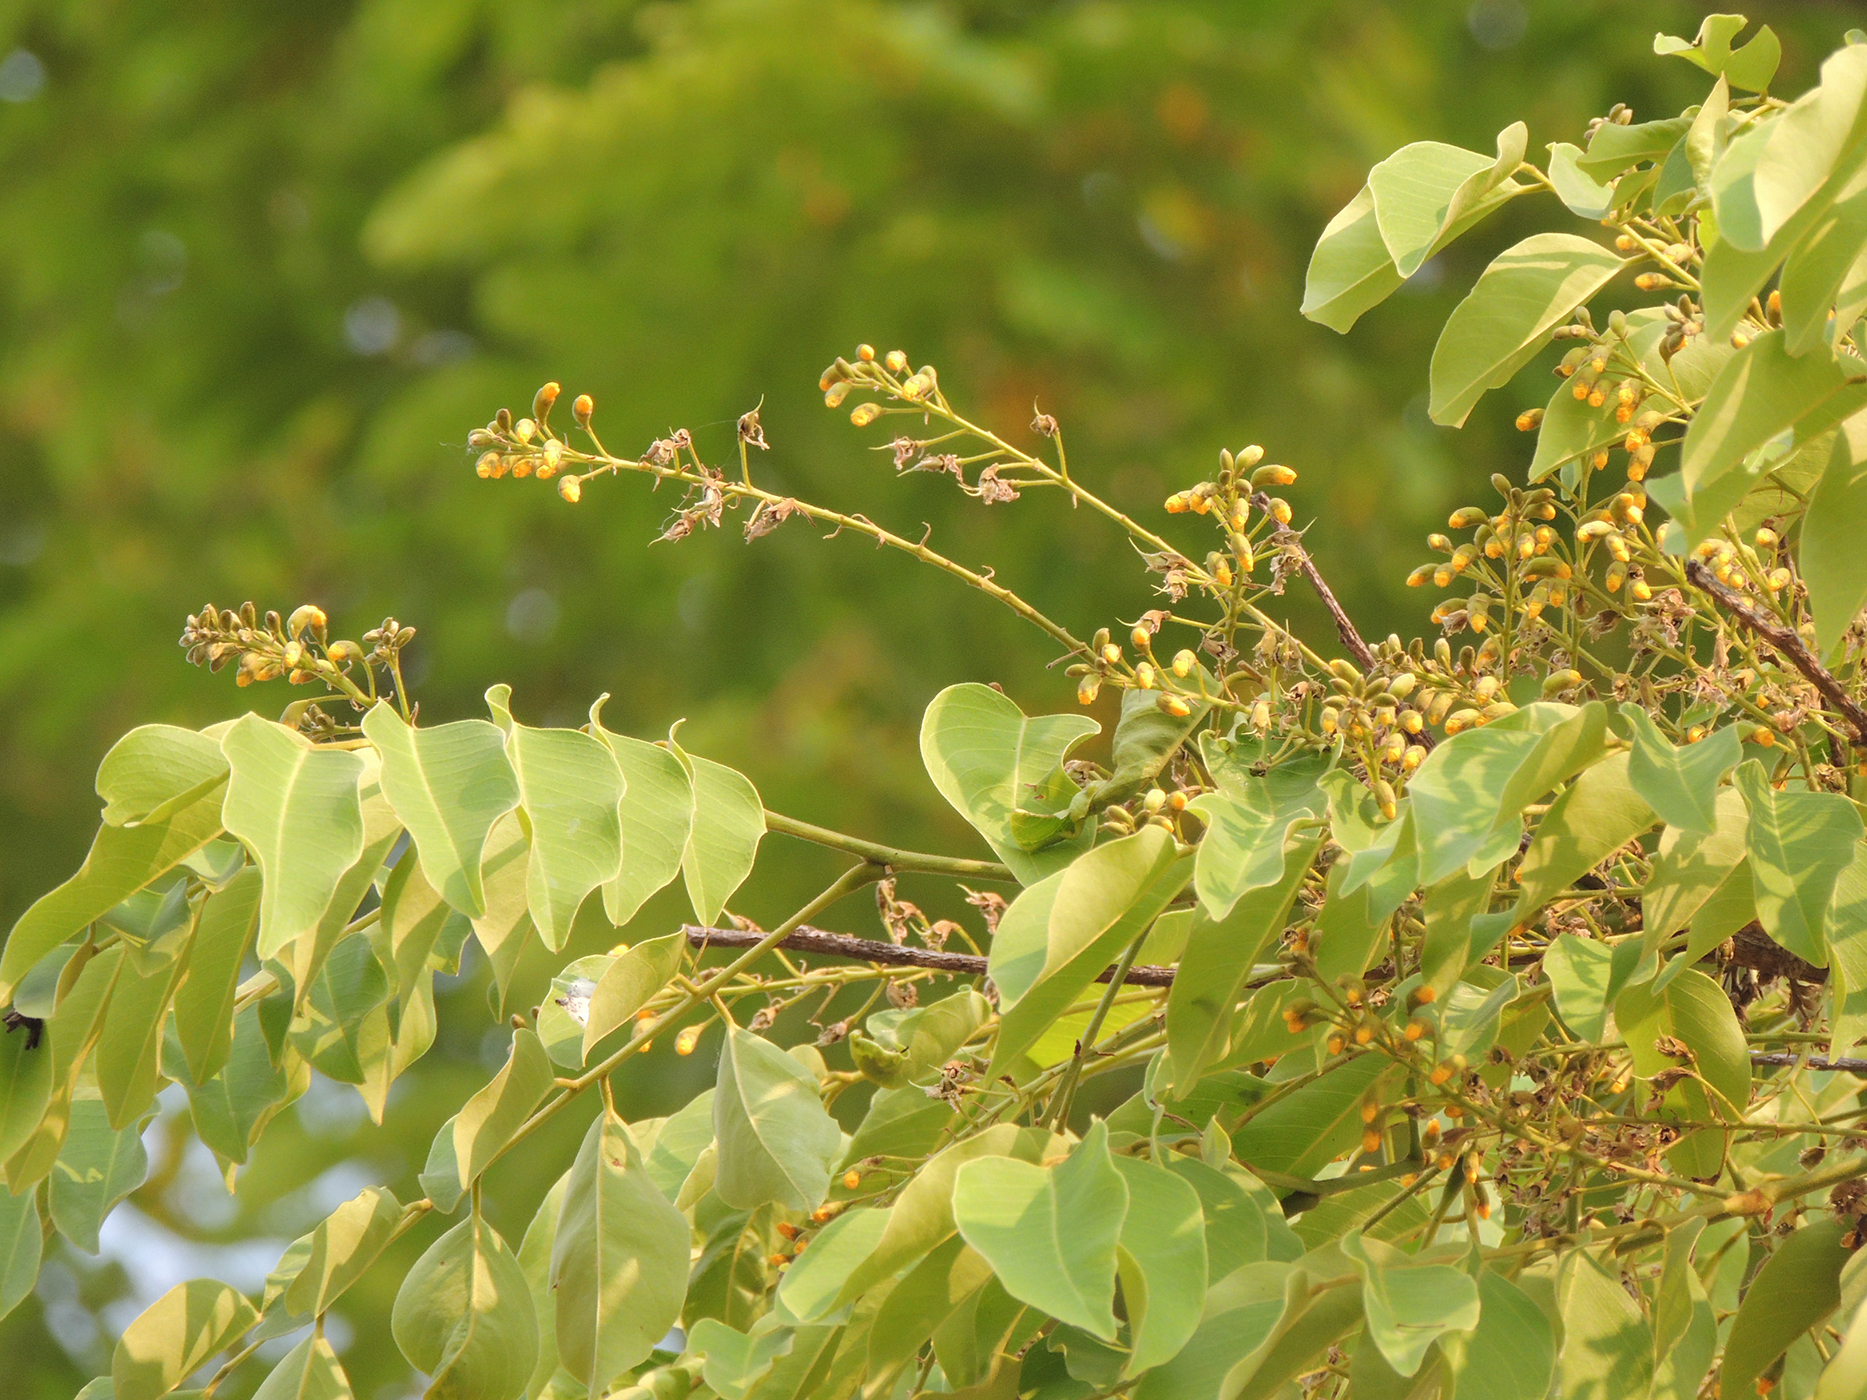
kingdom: Plantae
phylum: Tracheophyta
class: Magnoliopsida
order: Fabales
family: Fabaceae
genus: Pterocarpus
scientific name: Pterocarpus macrocarpus
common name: Burma padauk
